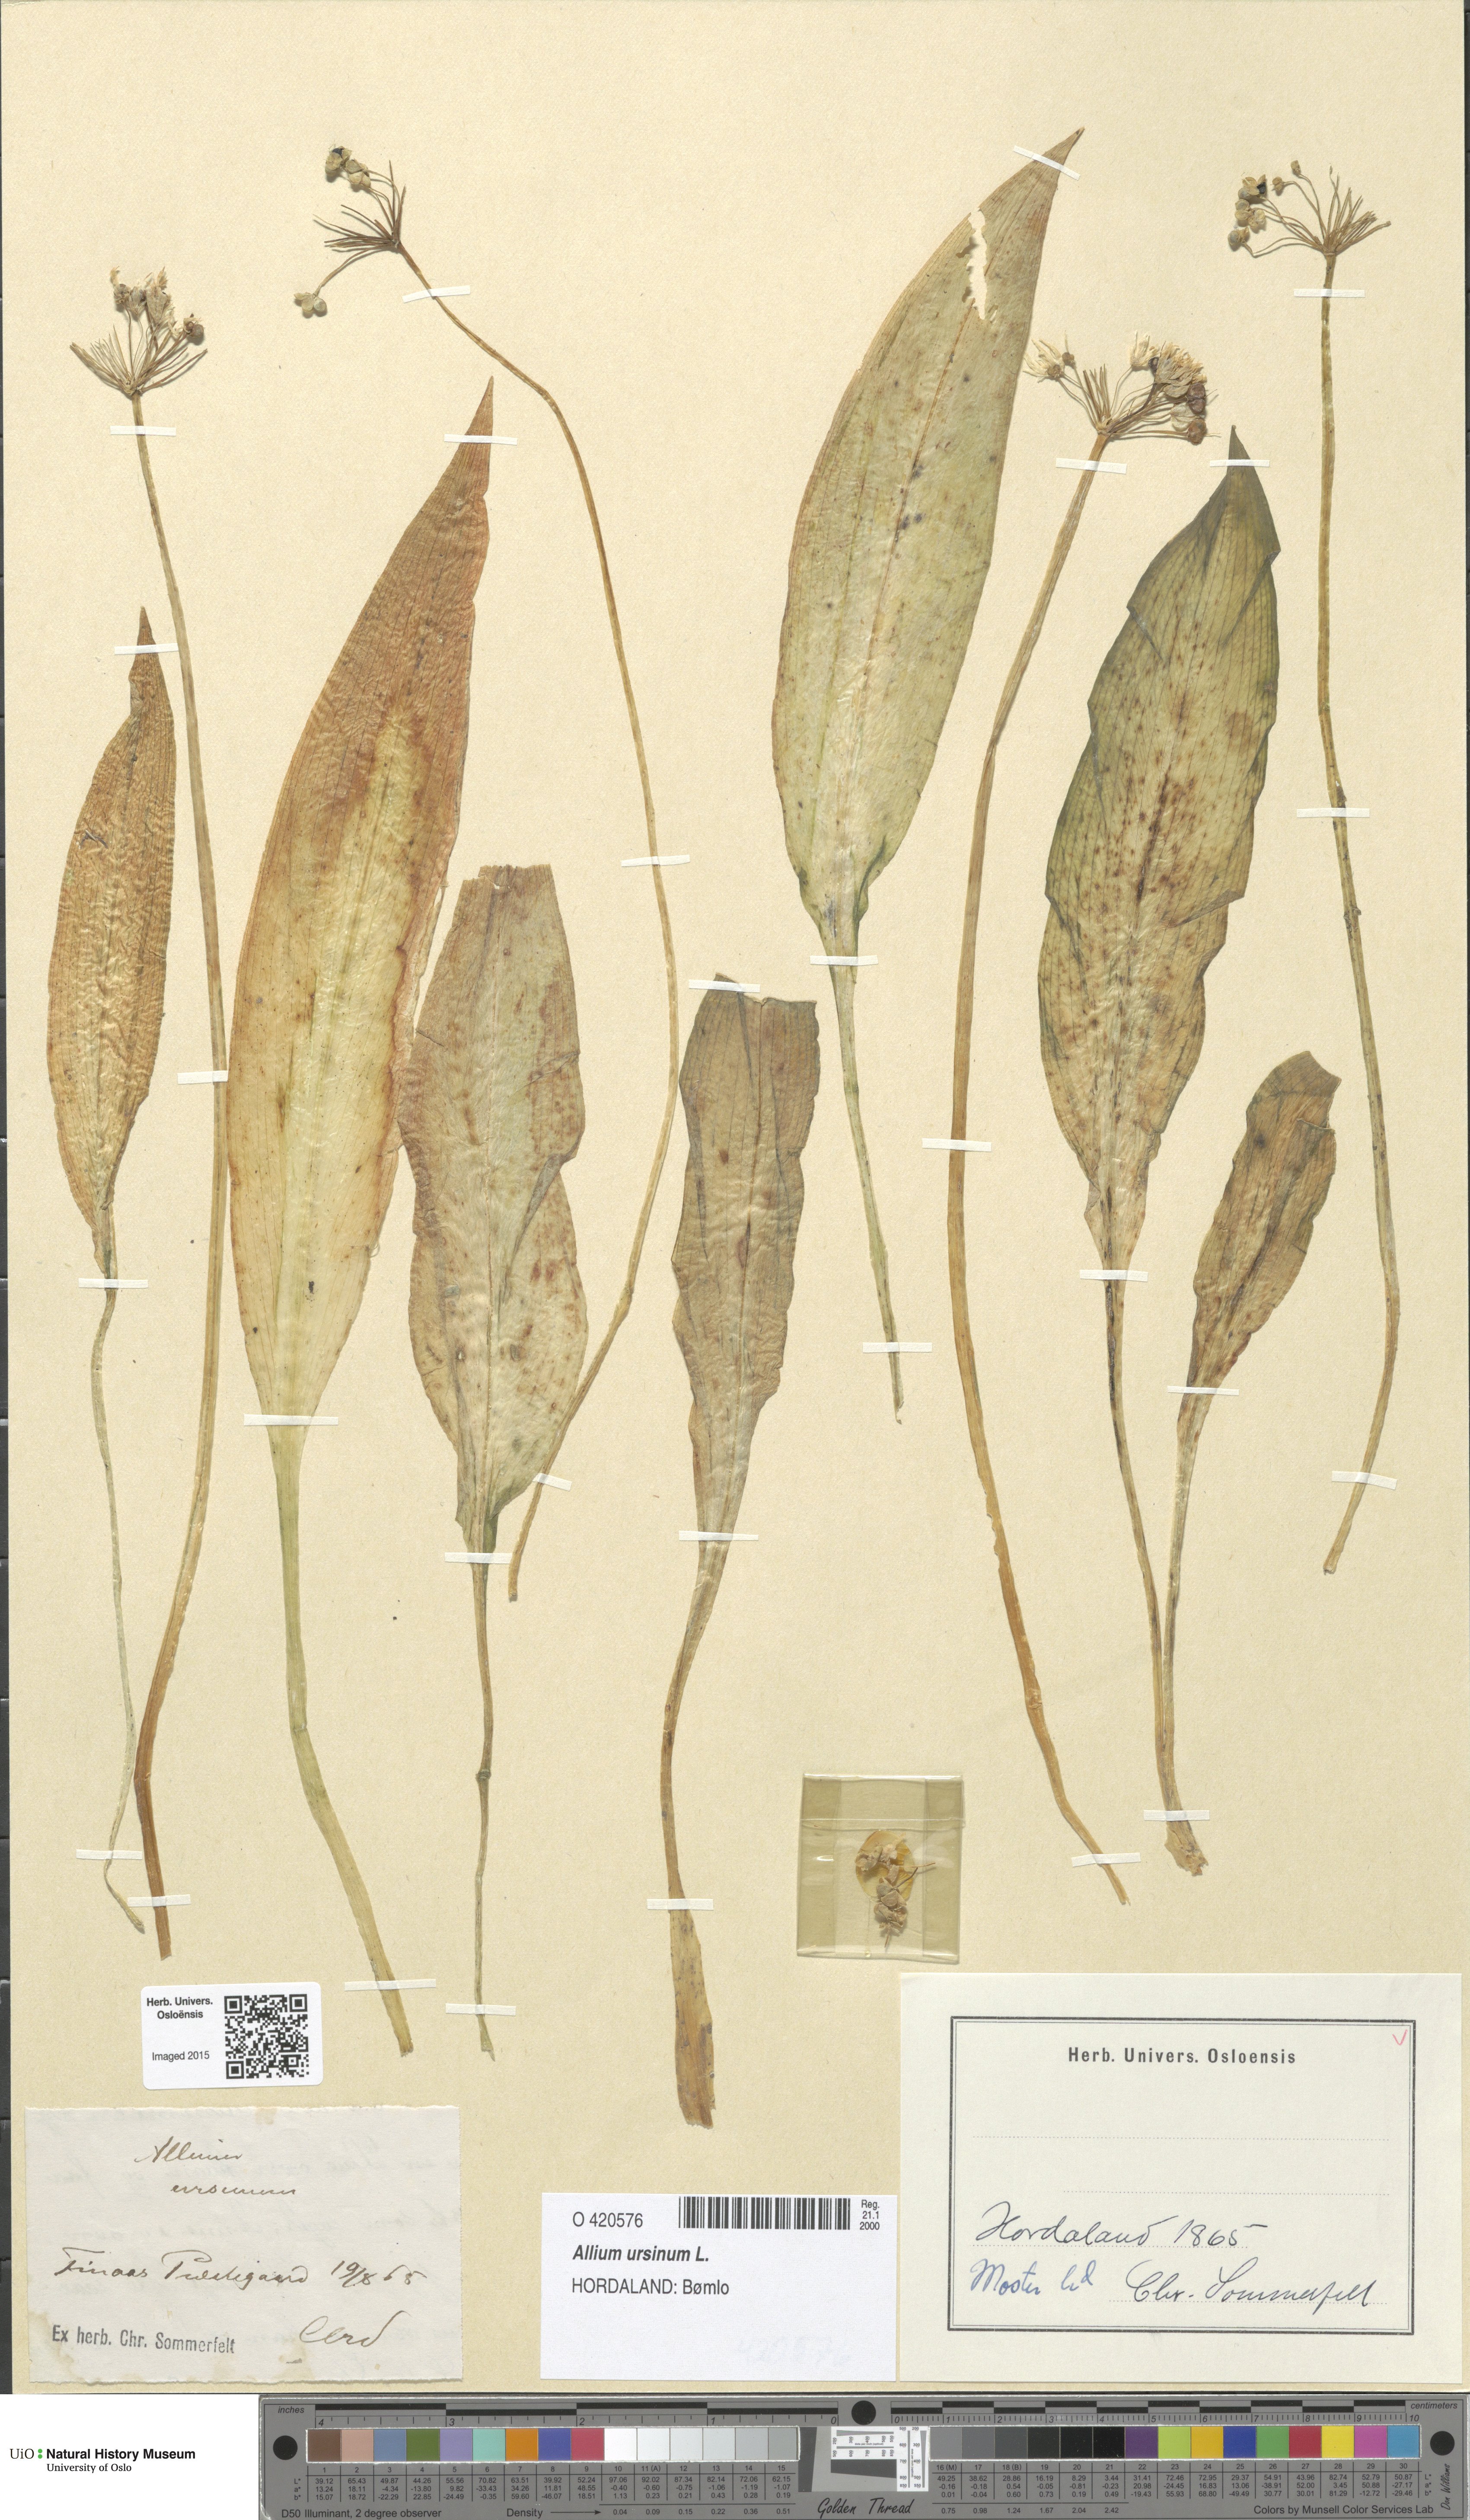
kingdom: Plantae
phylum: Tracheophyta
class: Liliopsida
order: Asparagales
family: Amaryllidaceae
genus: Allium
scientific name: Allium ursinum
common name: Ramsons
